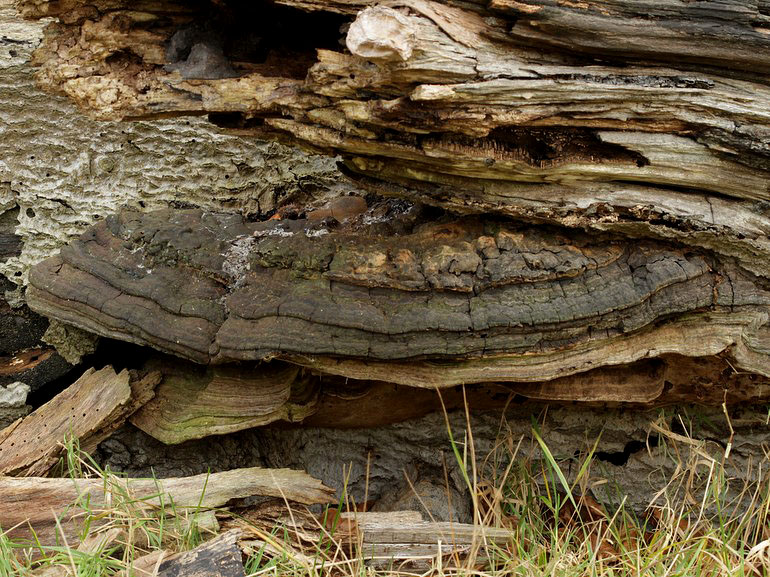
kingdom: Fungi
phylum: Basidiomycota
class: Agaricomycetes
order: Polyporales
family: Polyporaceae
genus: Ganoderma
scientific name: Ganoderma adspersum
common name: grov lakporesvamp
